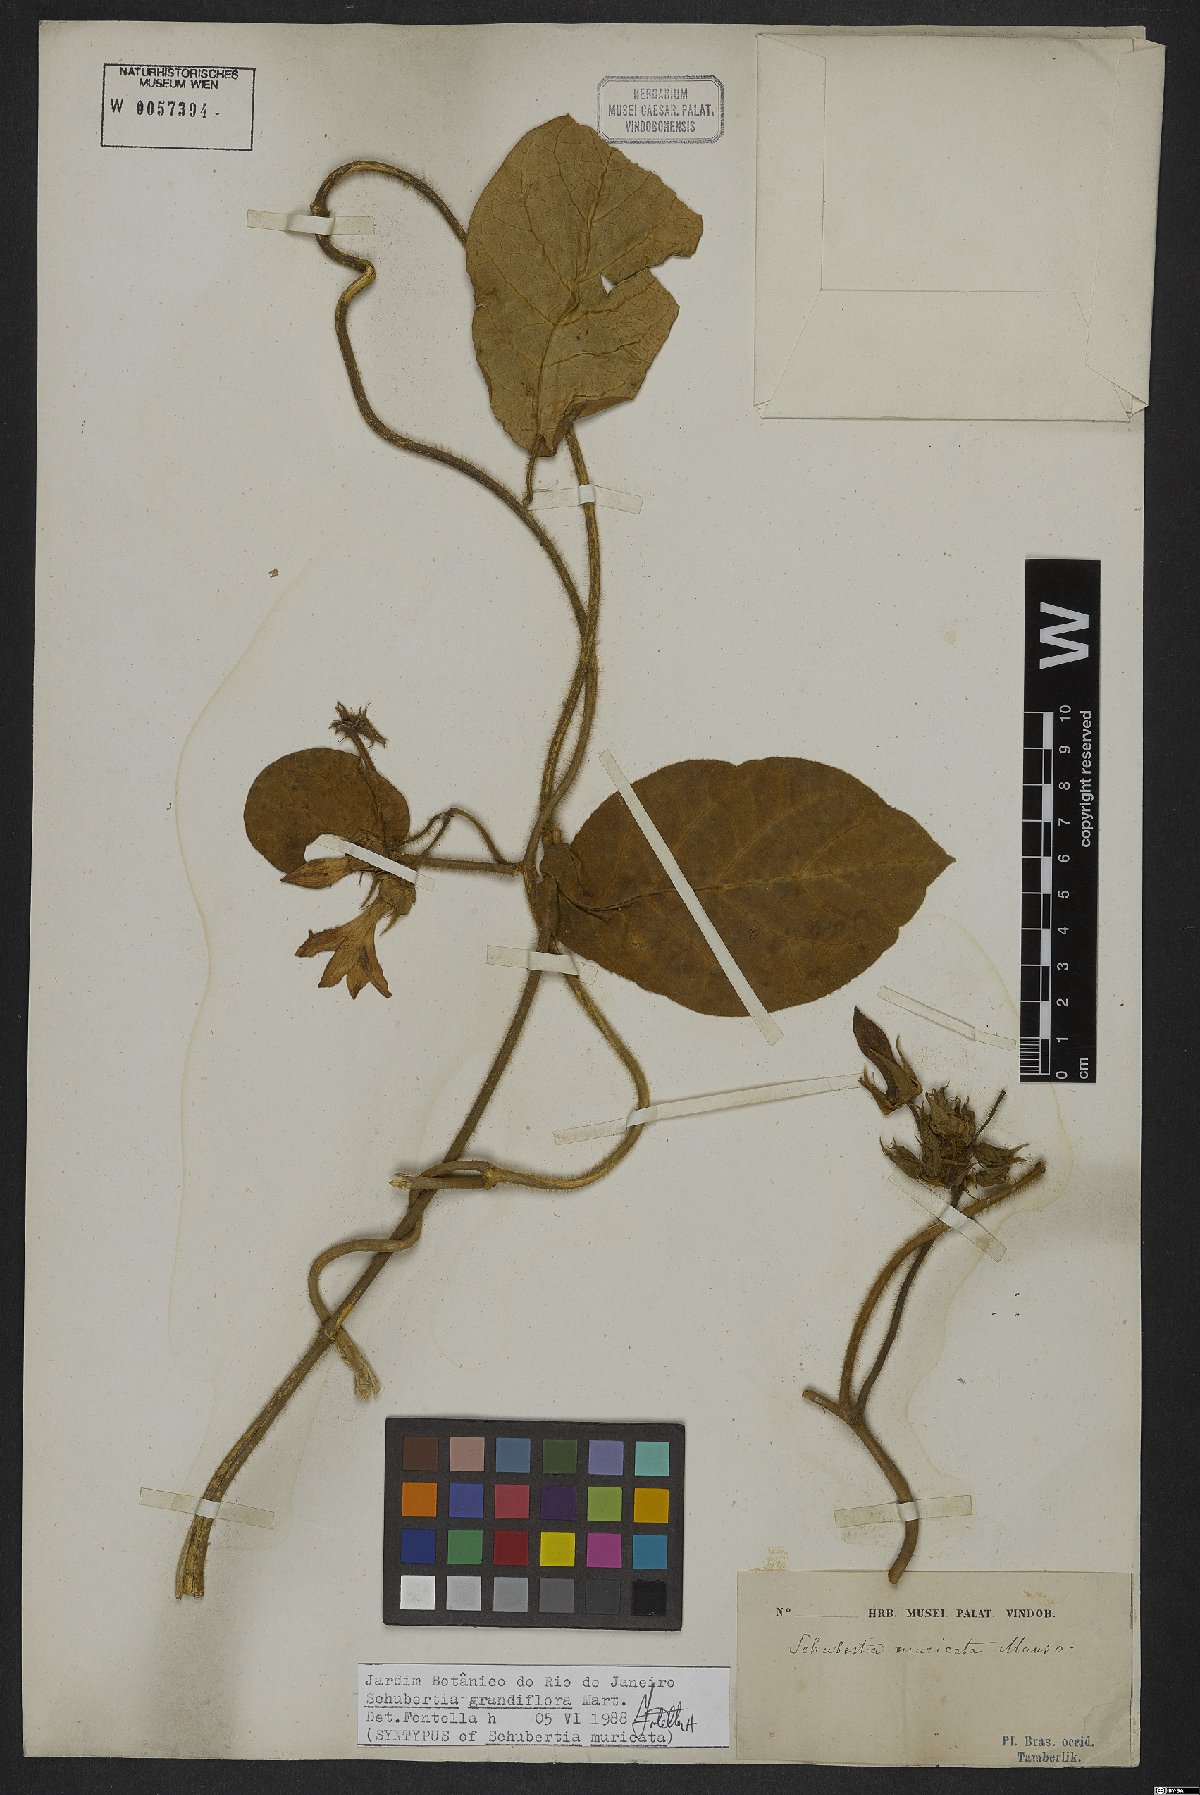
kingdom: Plantae
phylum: Tracheophyta
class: Magnoliopsida
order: Gentianales
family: Apocynaceae
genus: Macroscepis
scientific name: Macroscepis grandiflora
